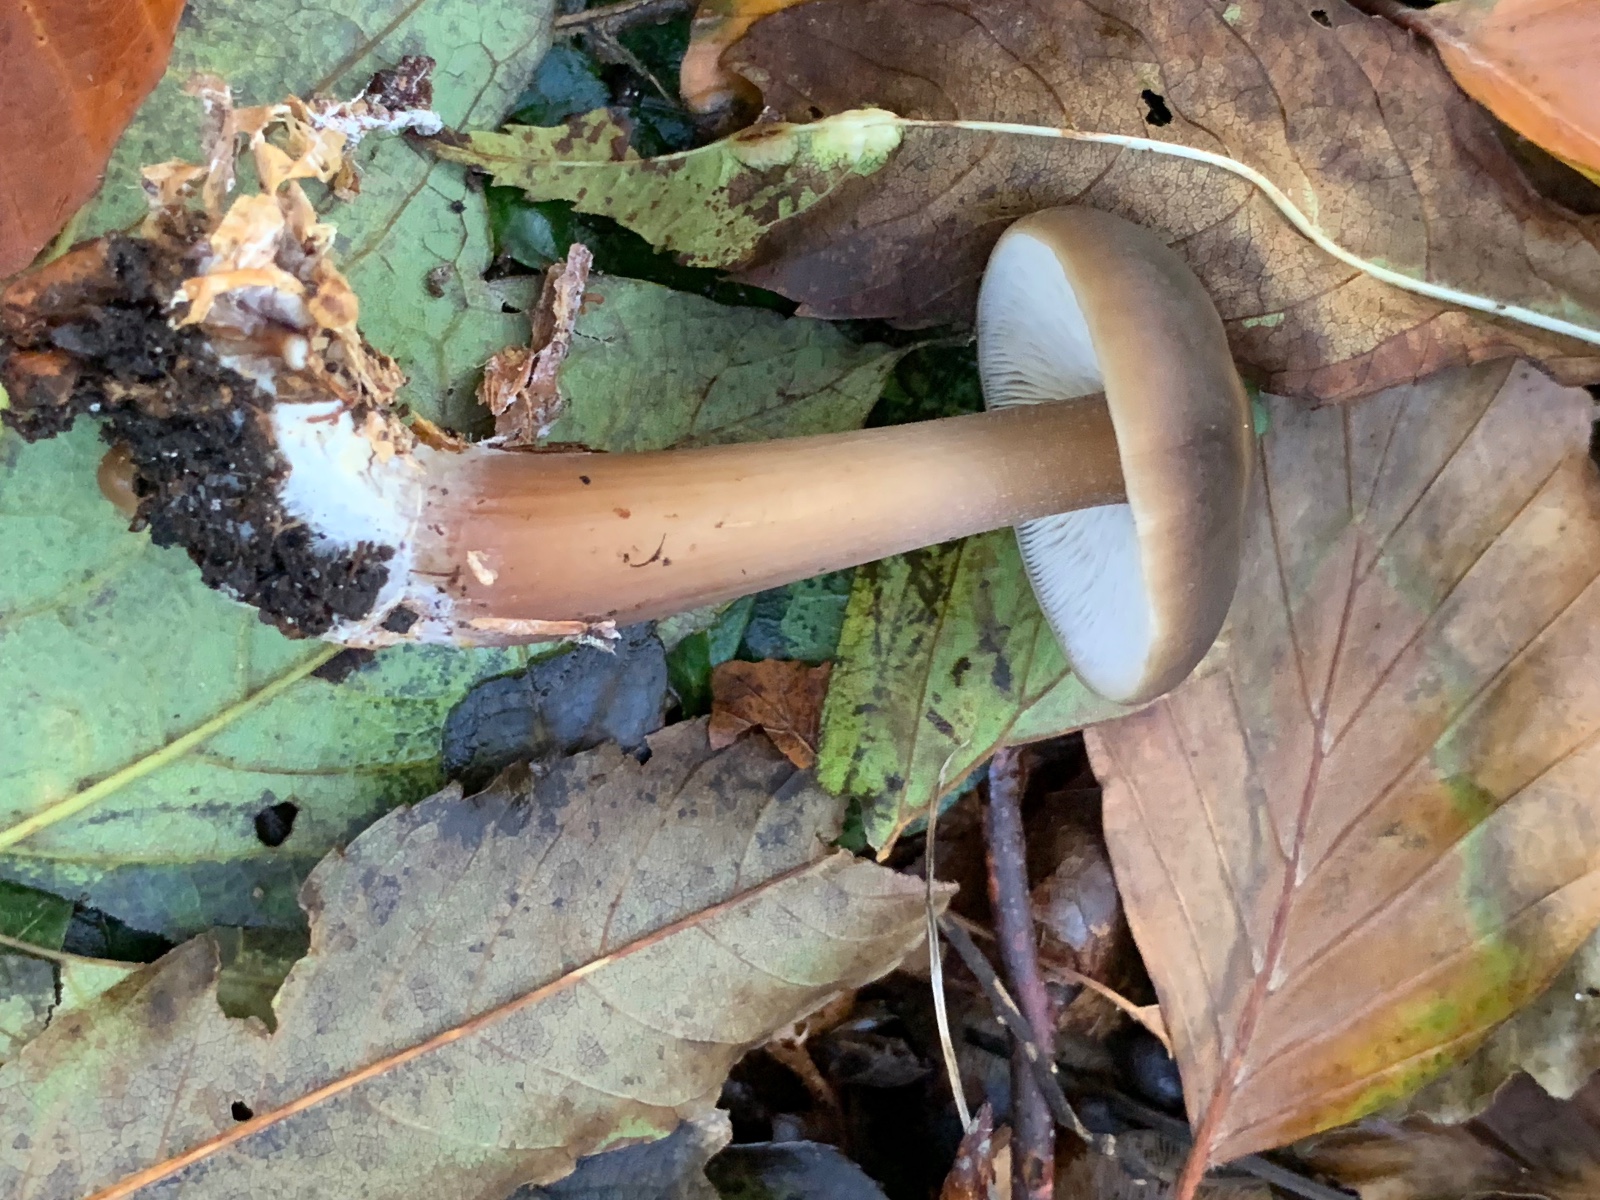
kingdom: Fungi
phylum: Basidiomycota
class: Agaricomycetes
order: Agaricales
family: Omphalotaceae
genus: Rhodocollybia
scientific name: Rhodocollybia asema
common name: horngrå fladhat
